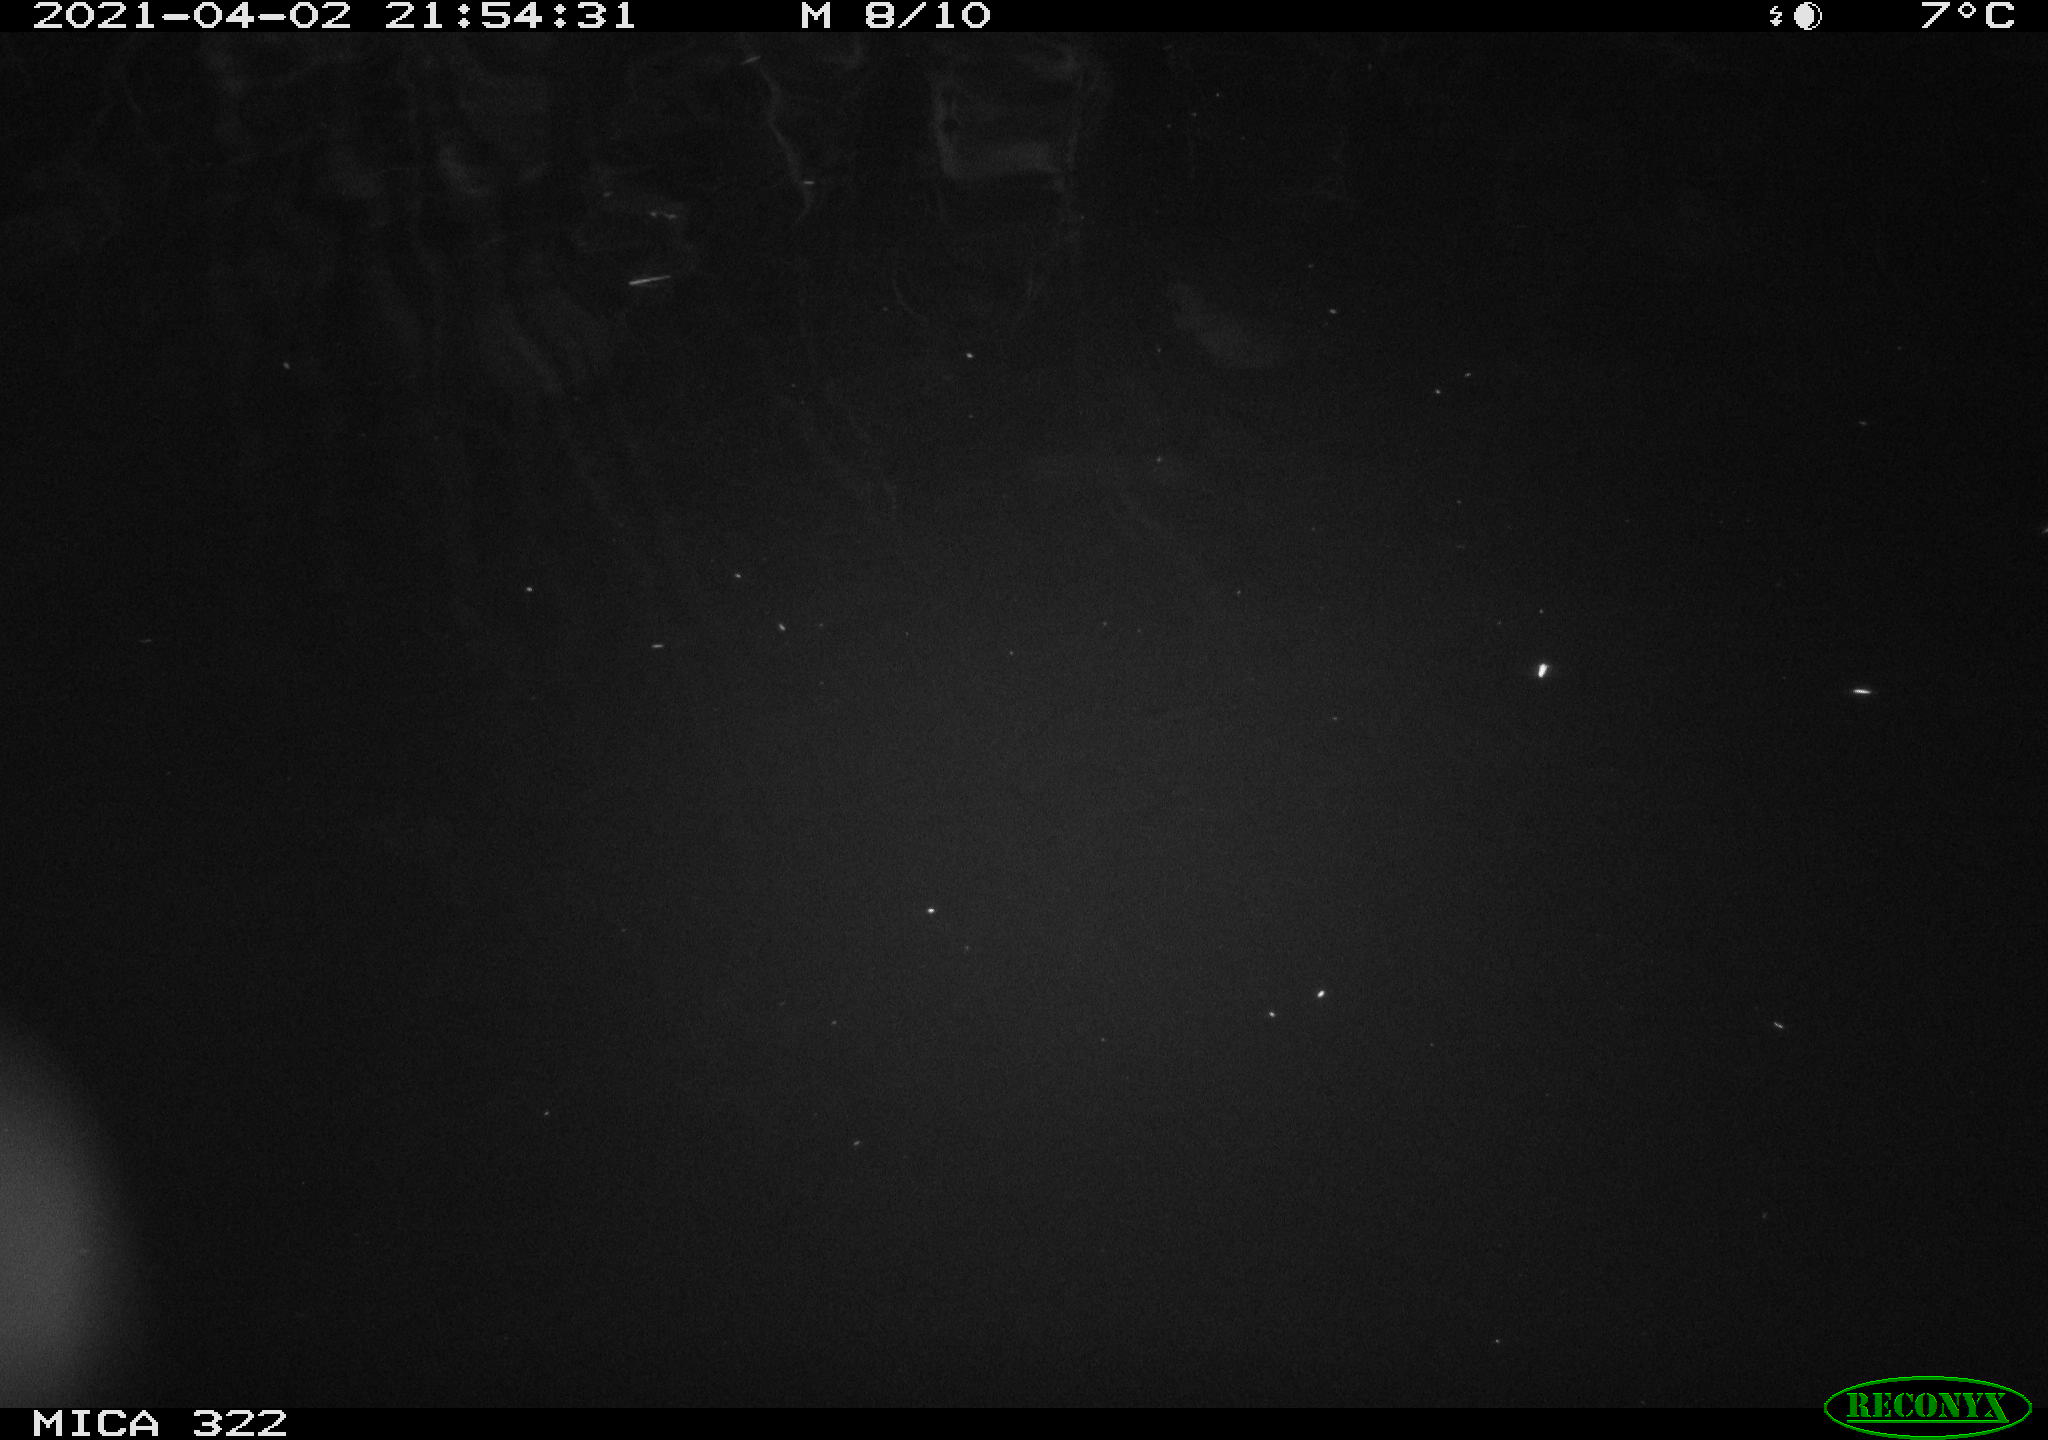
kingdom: Animalia
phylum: Chordata
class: Aves
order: Anseriformes
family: Anatidae
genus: Anas
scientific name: Anas platyrhynchos
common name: Mallard
